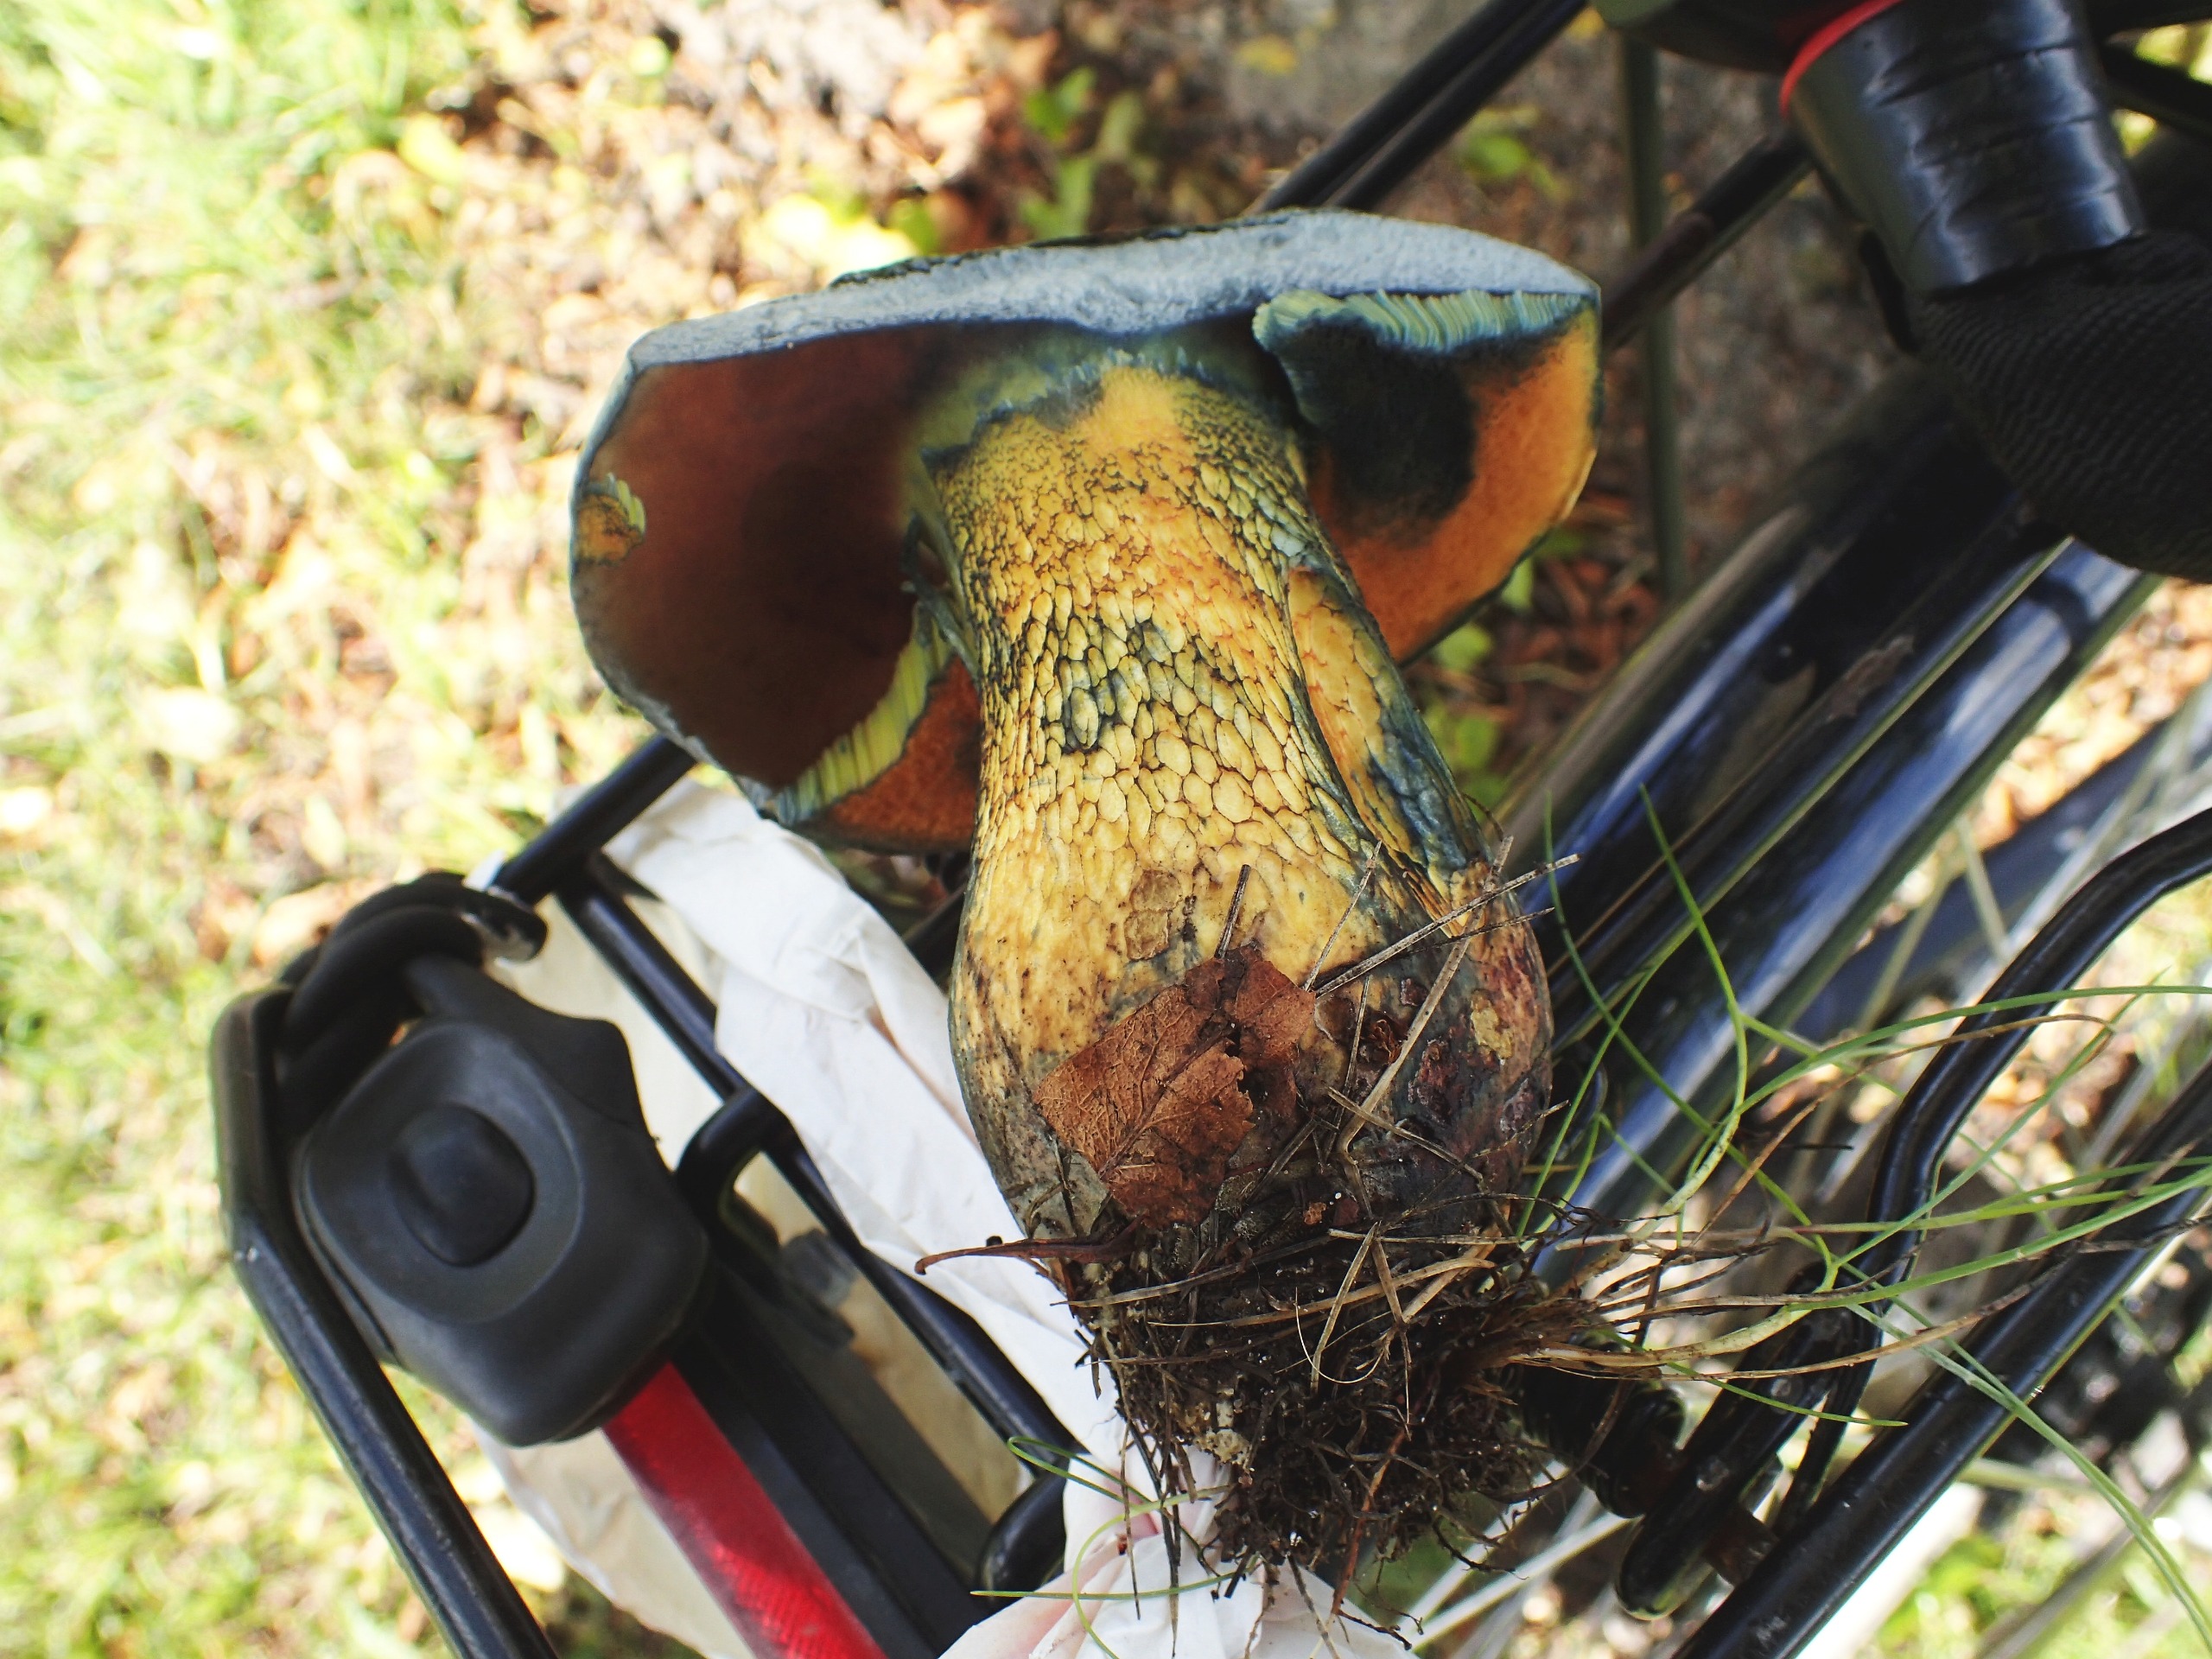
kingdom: Fungi
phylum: Basidiomycota
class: Agaricomycetes
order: Boletales
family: Boletaceae
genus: Suillellus
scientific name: Suillellus luridus
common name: Netstokket indigorørhat
